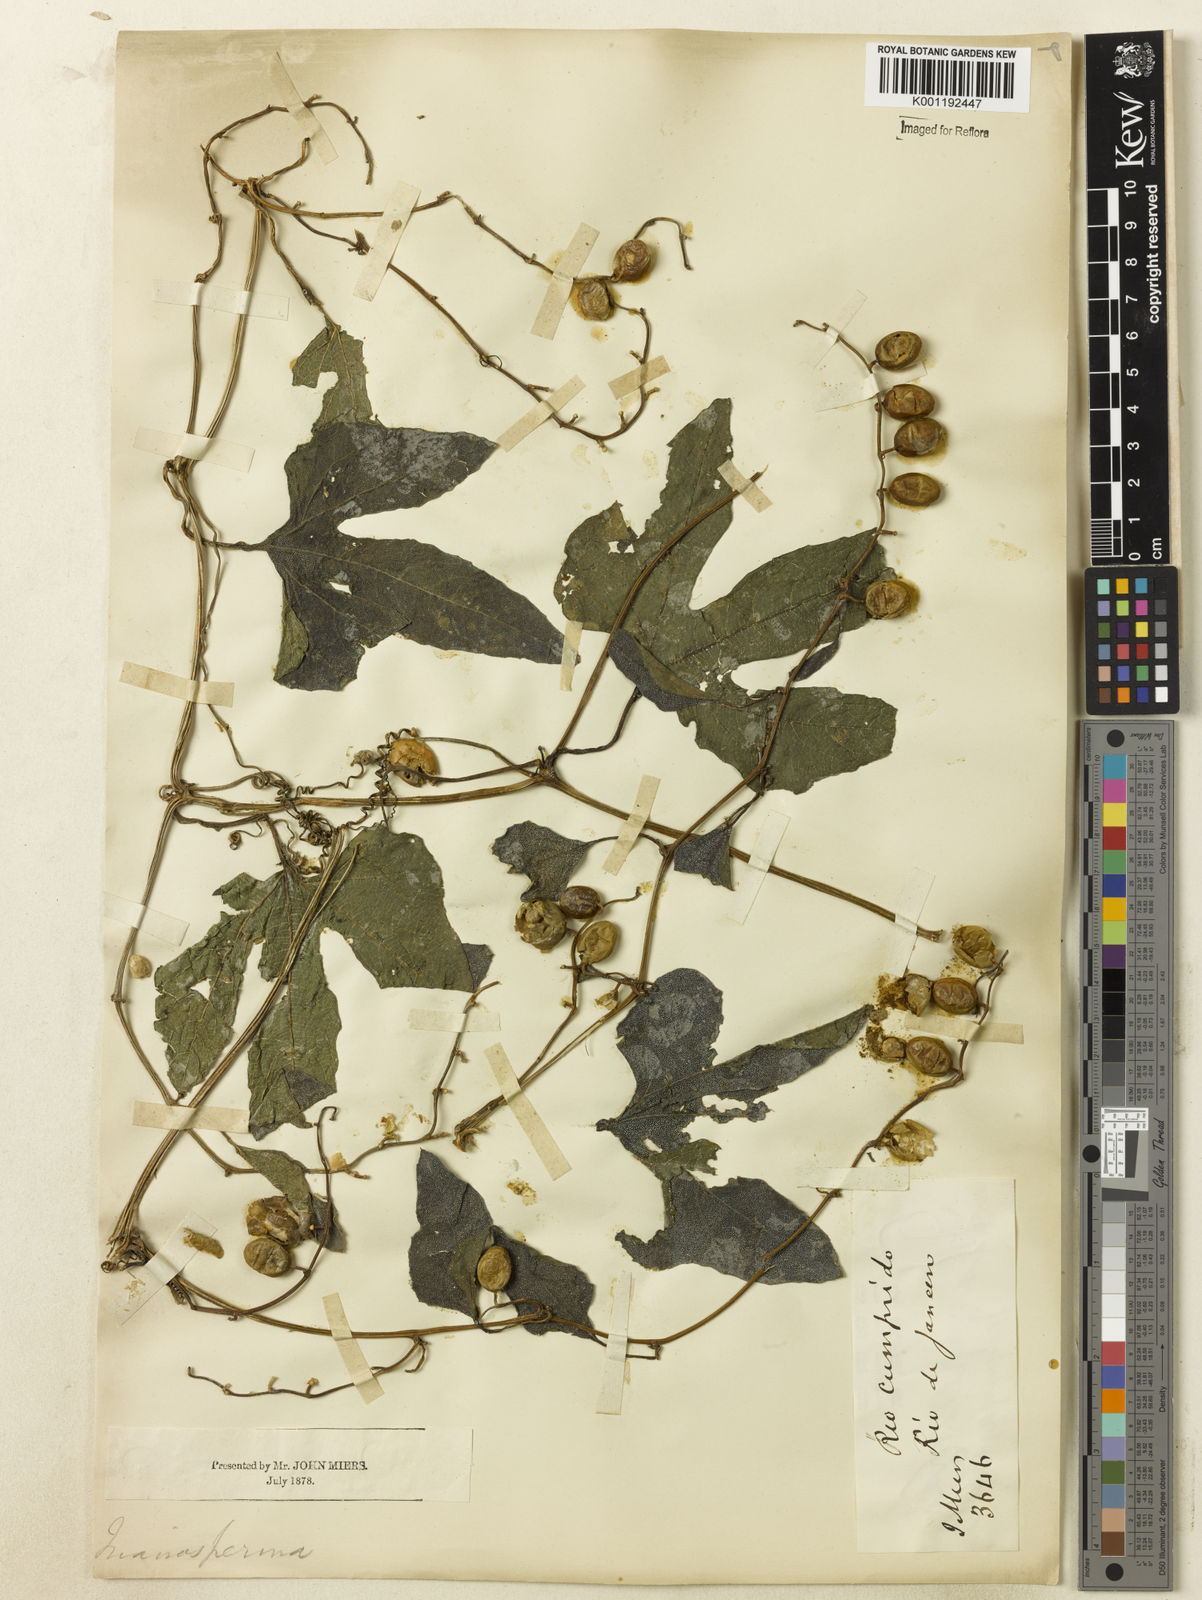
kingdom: Plantae
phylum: Tracheophyta
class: Magnoliopsida
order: Cucurbitales
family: Cucurbitaceae
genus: Cayaponia
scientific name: Cayaponia tayuya
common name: Tayuya
